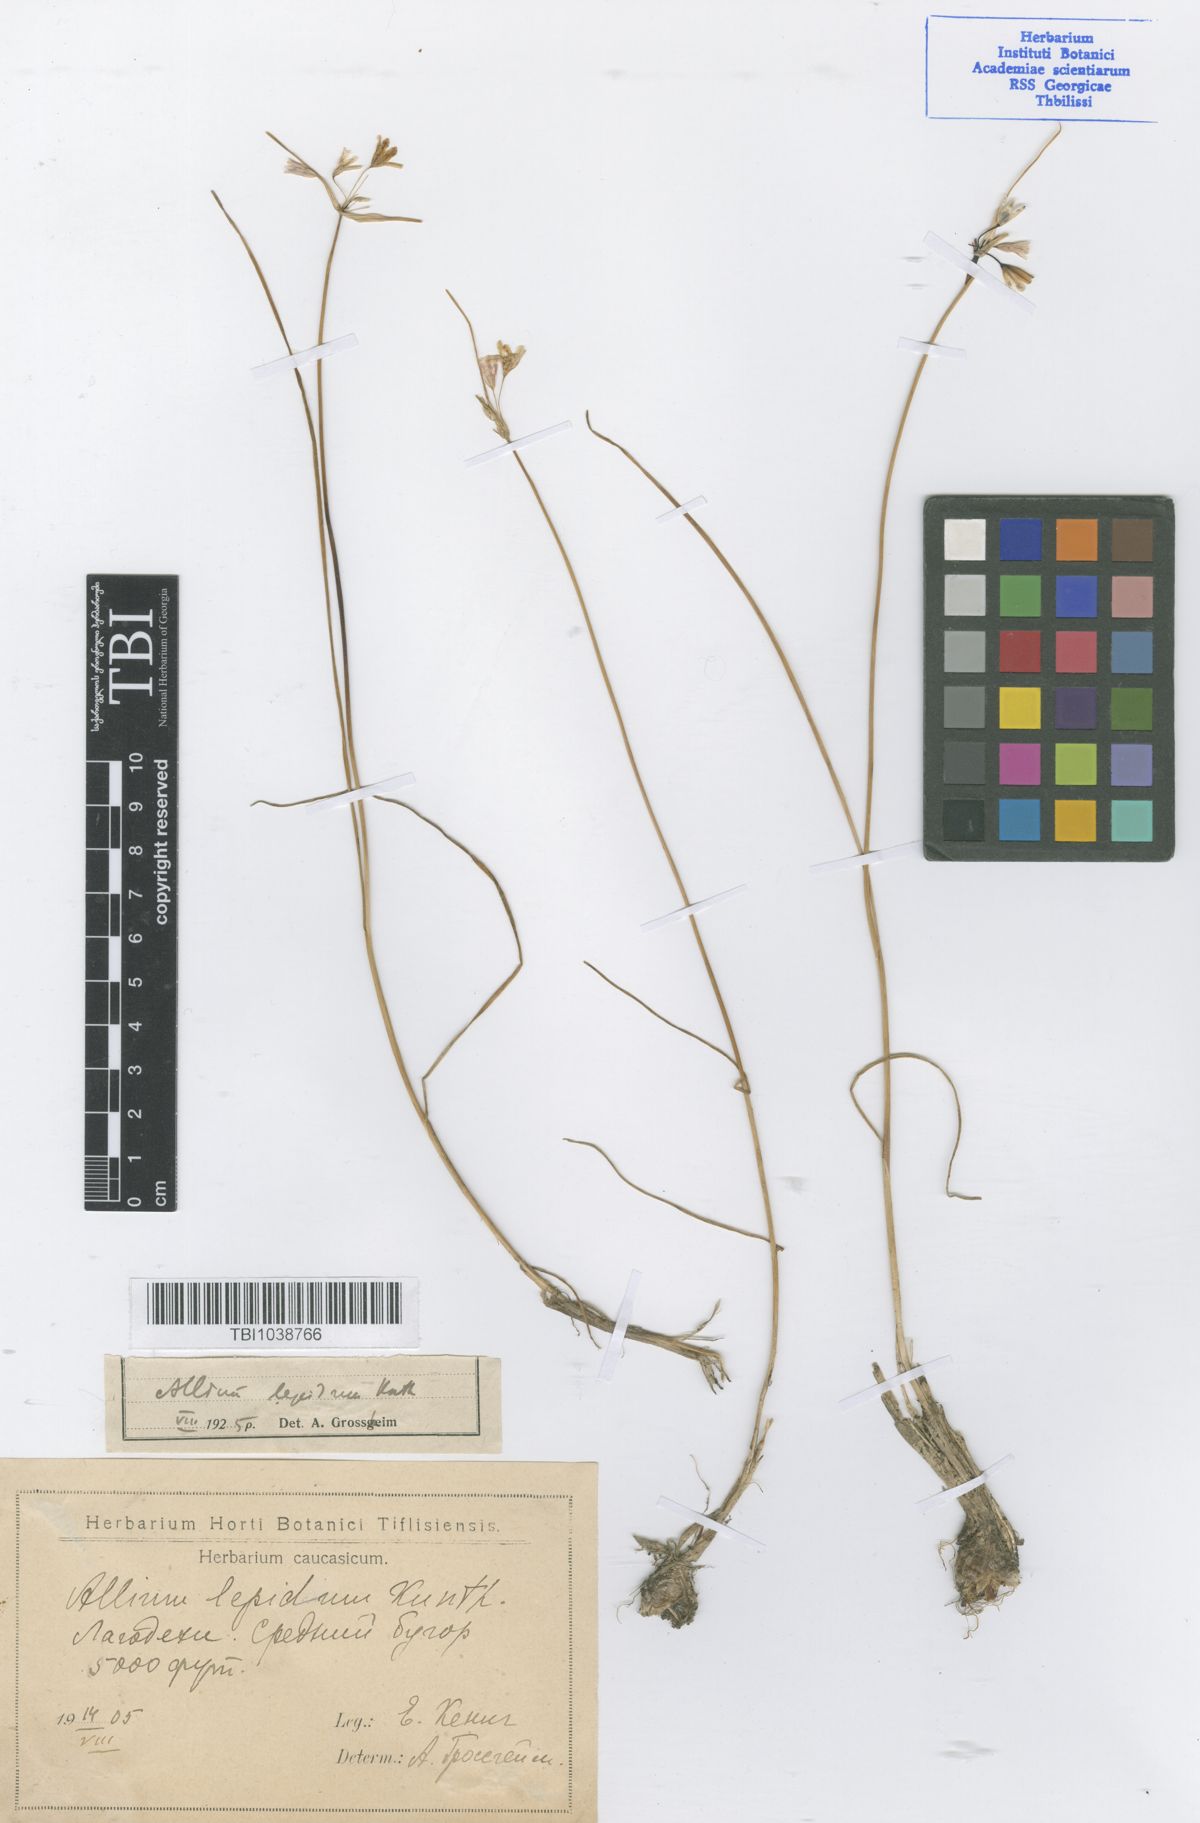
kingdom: Plantae
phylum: Tracheophyta
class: Liliopsida
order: Asparagales
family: Amaryllidaceae
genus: Allium
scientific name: Allium kunthianum
